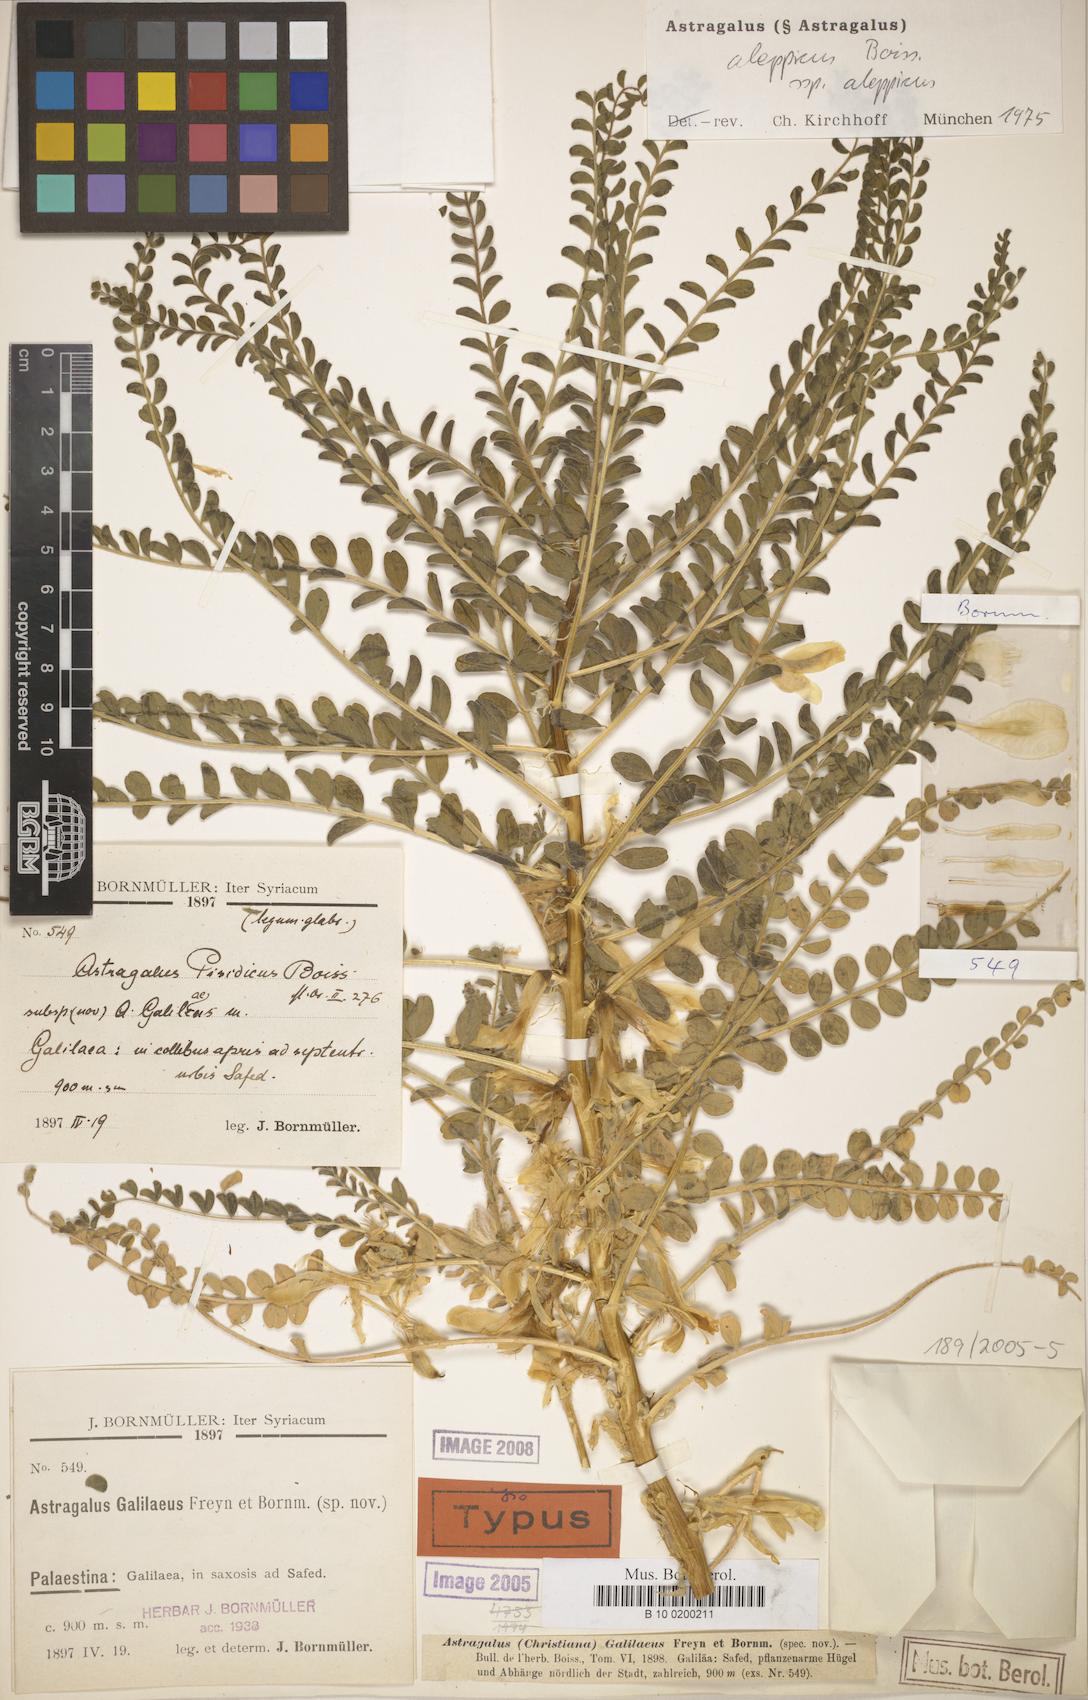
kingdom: Plantae
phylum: Tracheophyta
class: Magnoliopsida
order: Fabales
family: Fabaceae
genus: Astragalus
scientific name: Astragalus aleppicus
